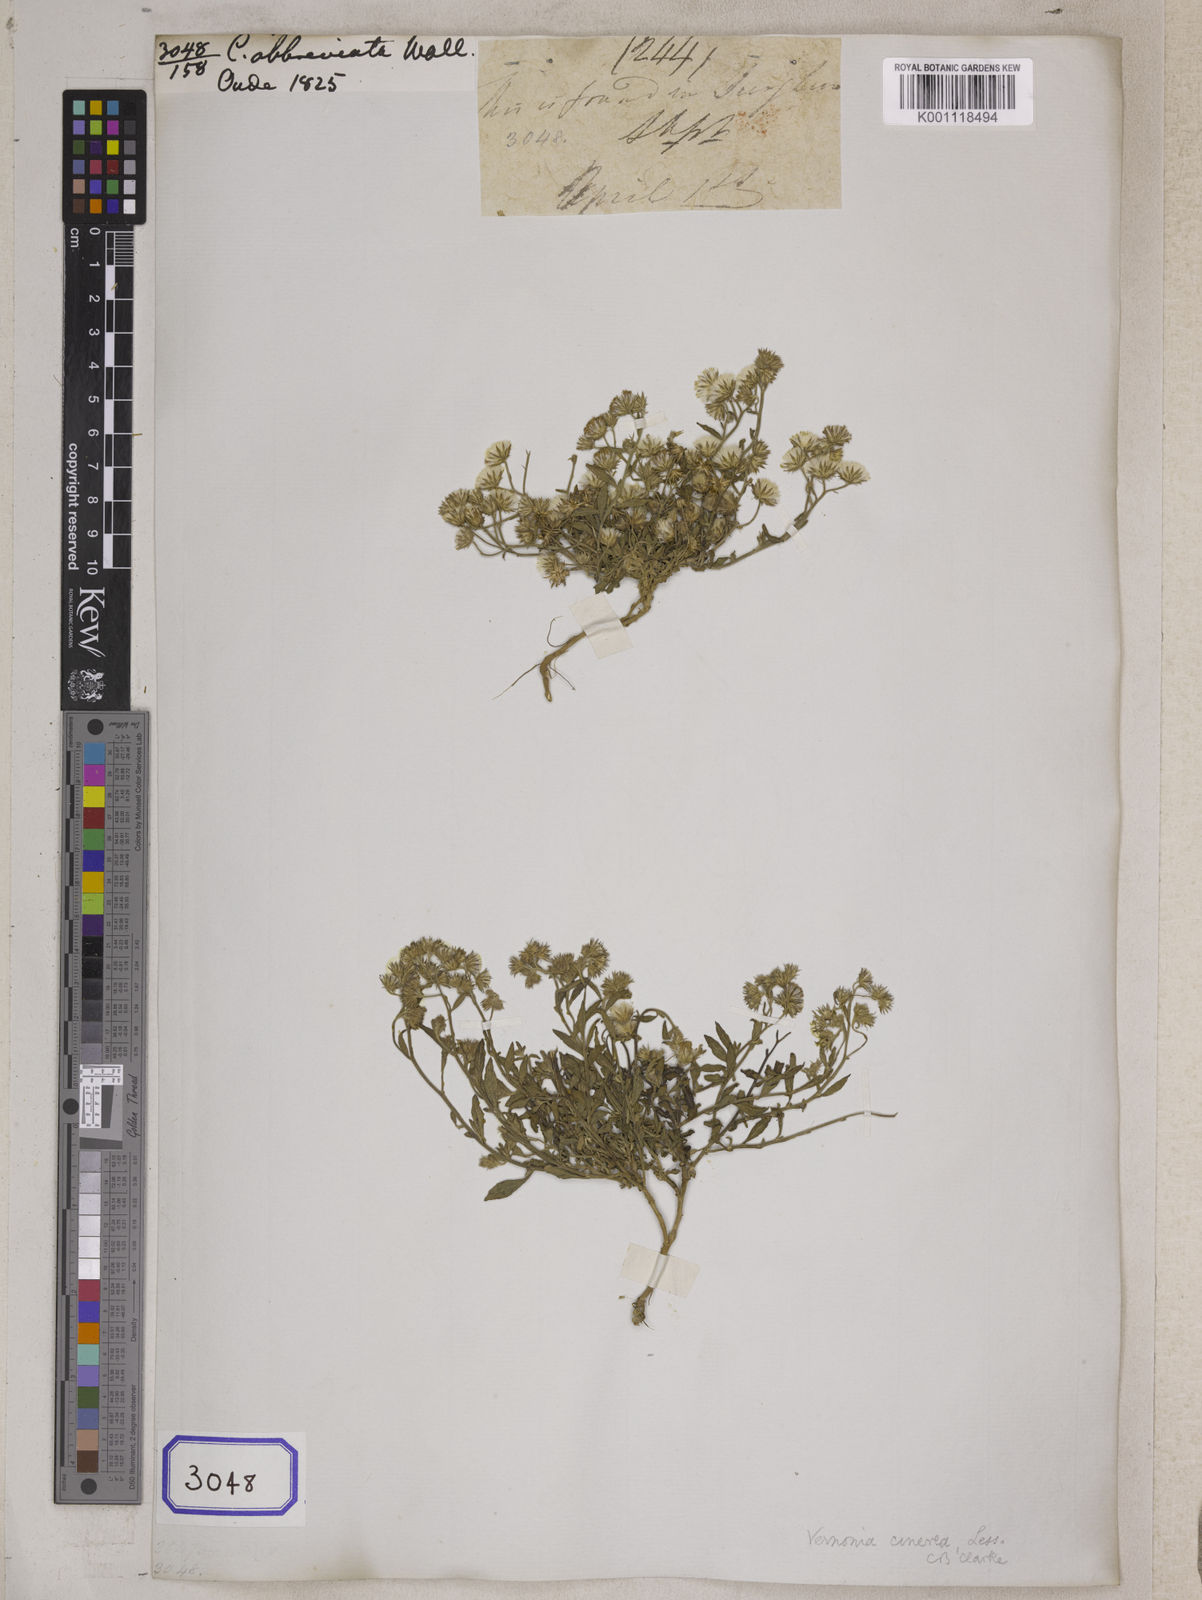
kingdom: Plantae
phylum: Tracheophyta
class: Magnoliopsida
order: Asterales
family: Asteraceae
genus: Cyanthillium
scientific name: Cyanthillium cinereum
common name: Little ironweed
